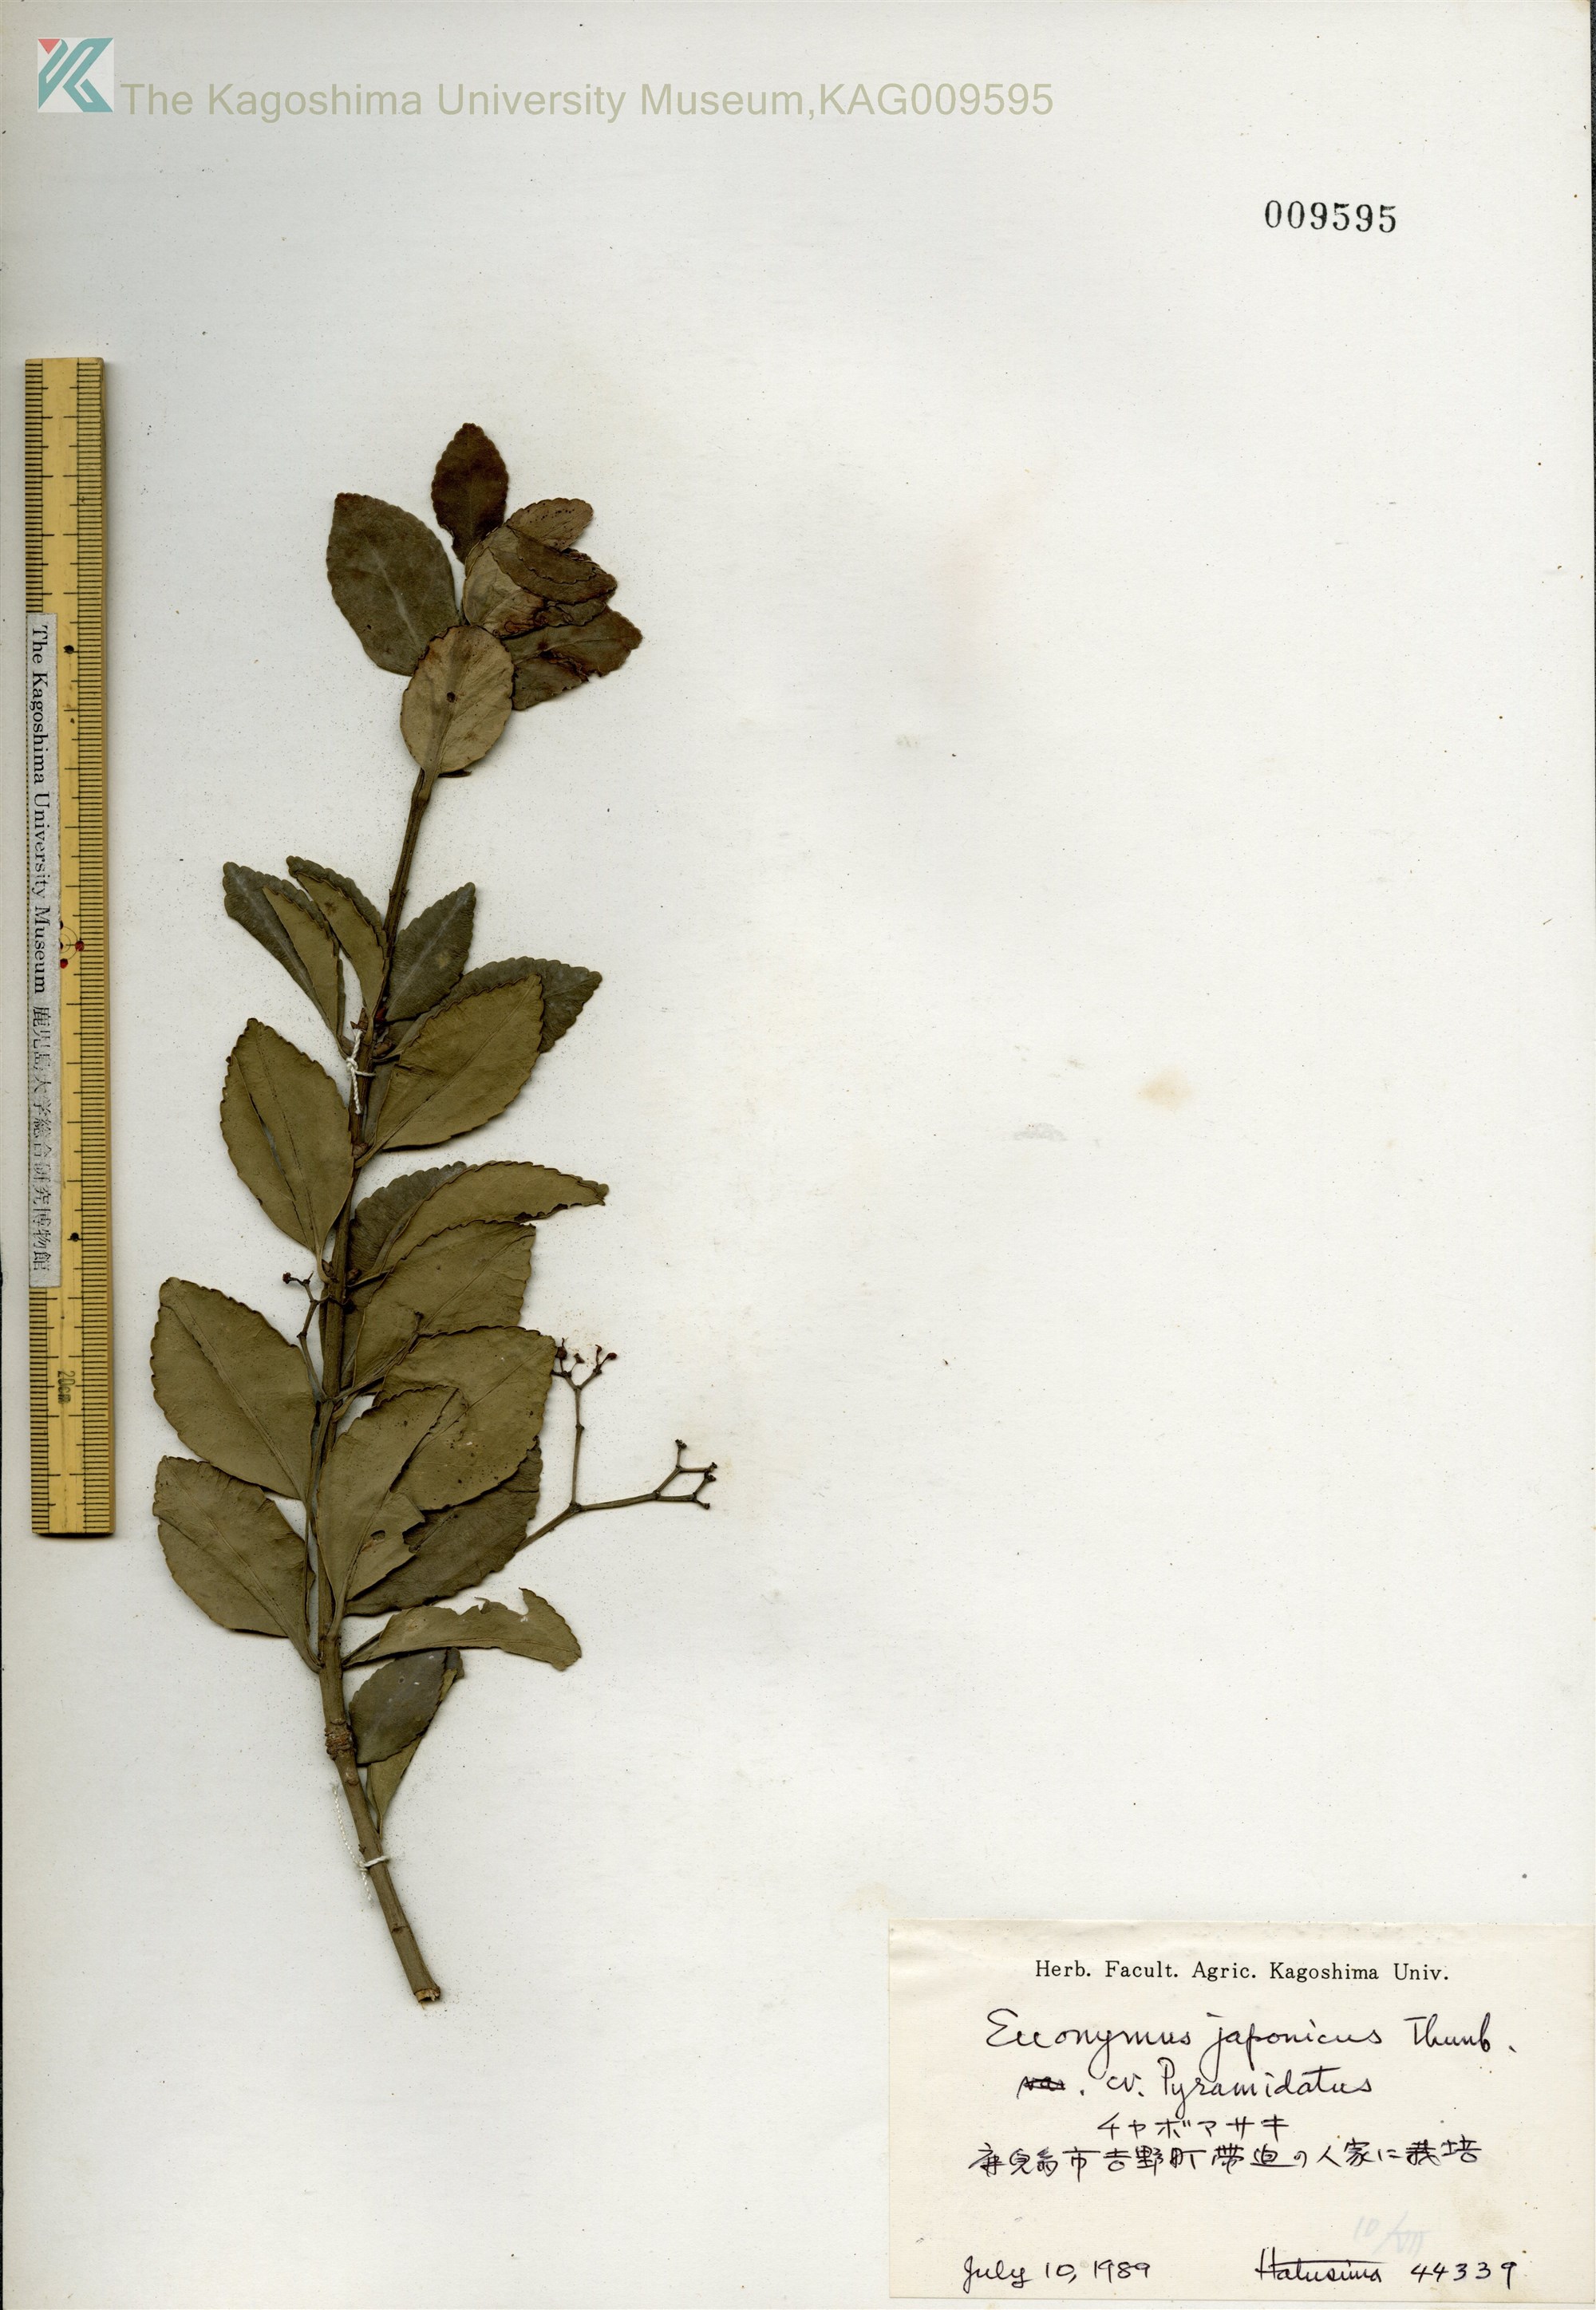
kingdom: Plantae
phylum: Tracheophyta
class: Magnoliopsida
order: Celastrales
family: Celastraceae
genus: Euonymus
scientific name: Euonymus japonicus
